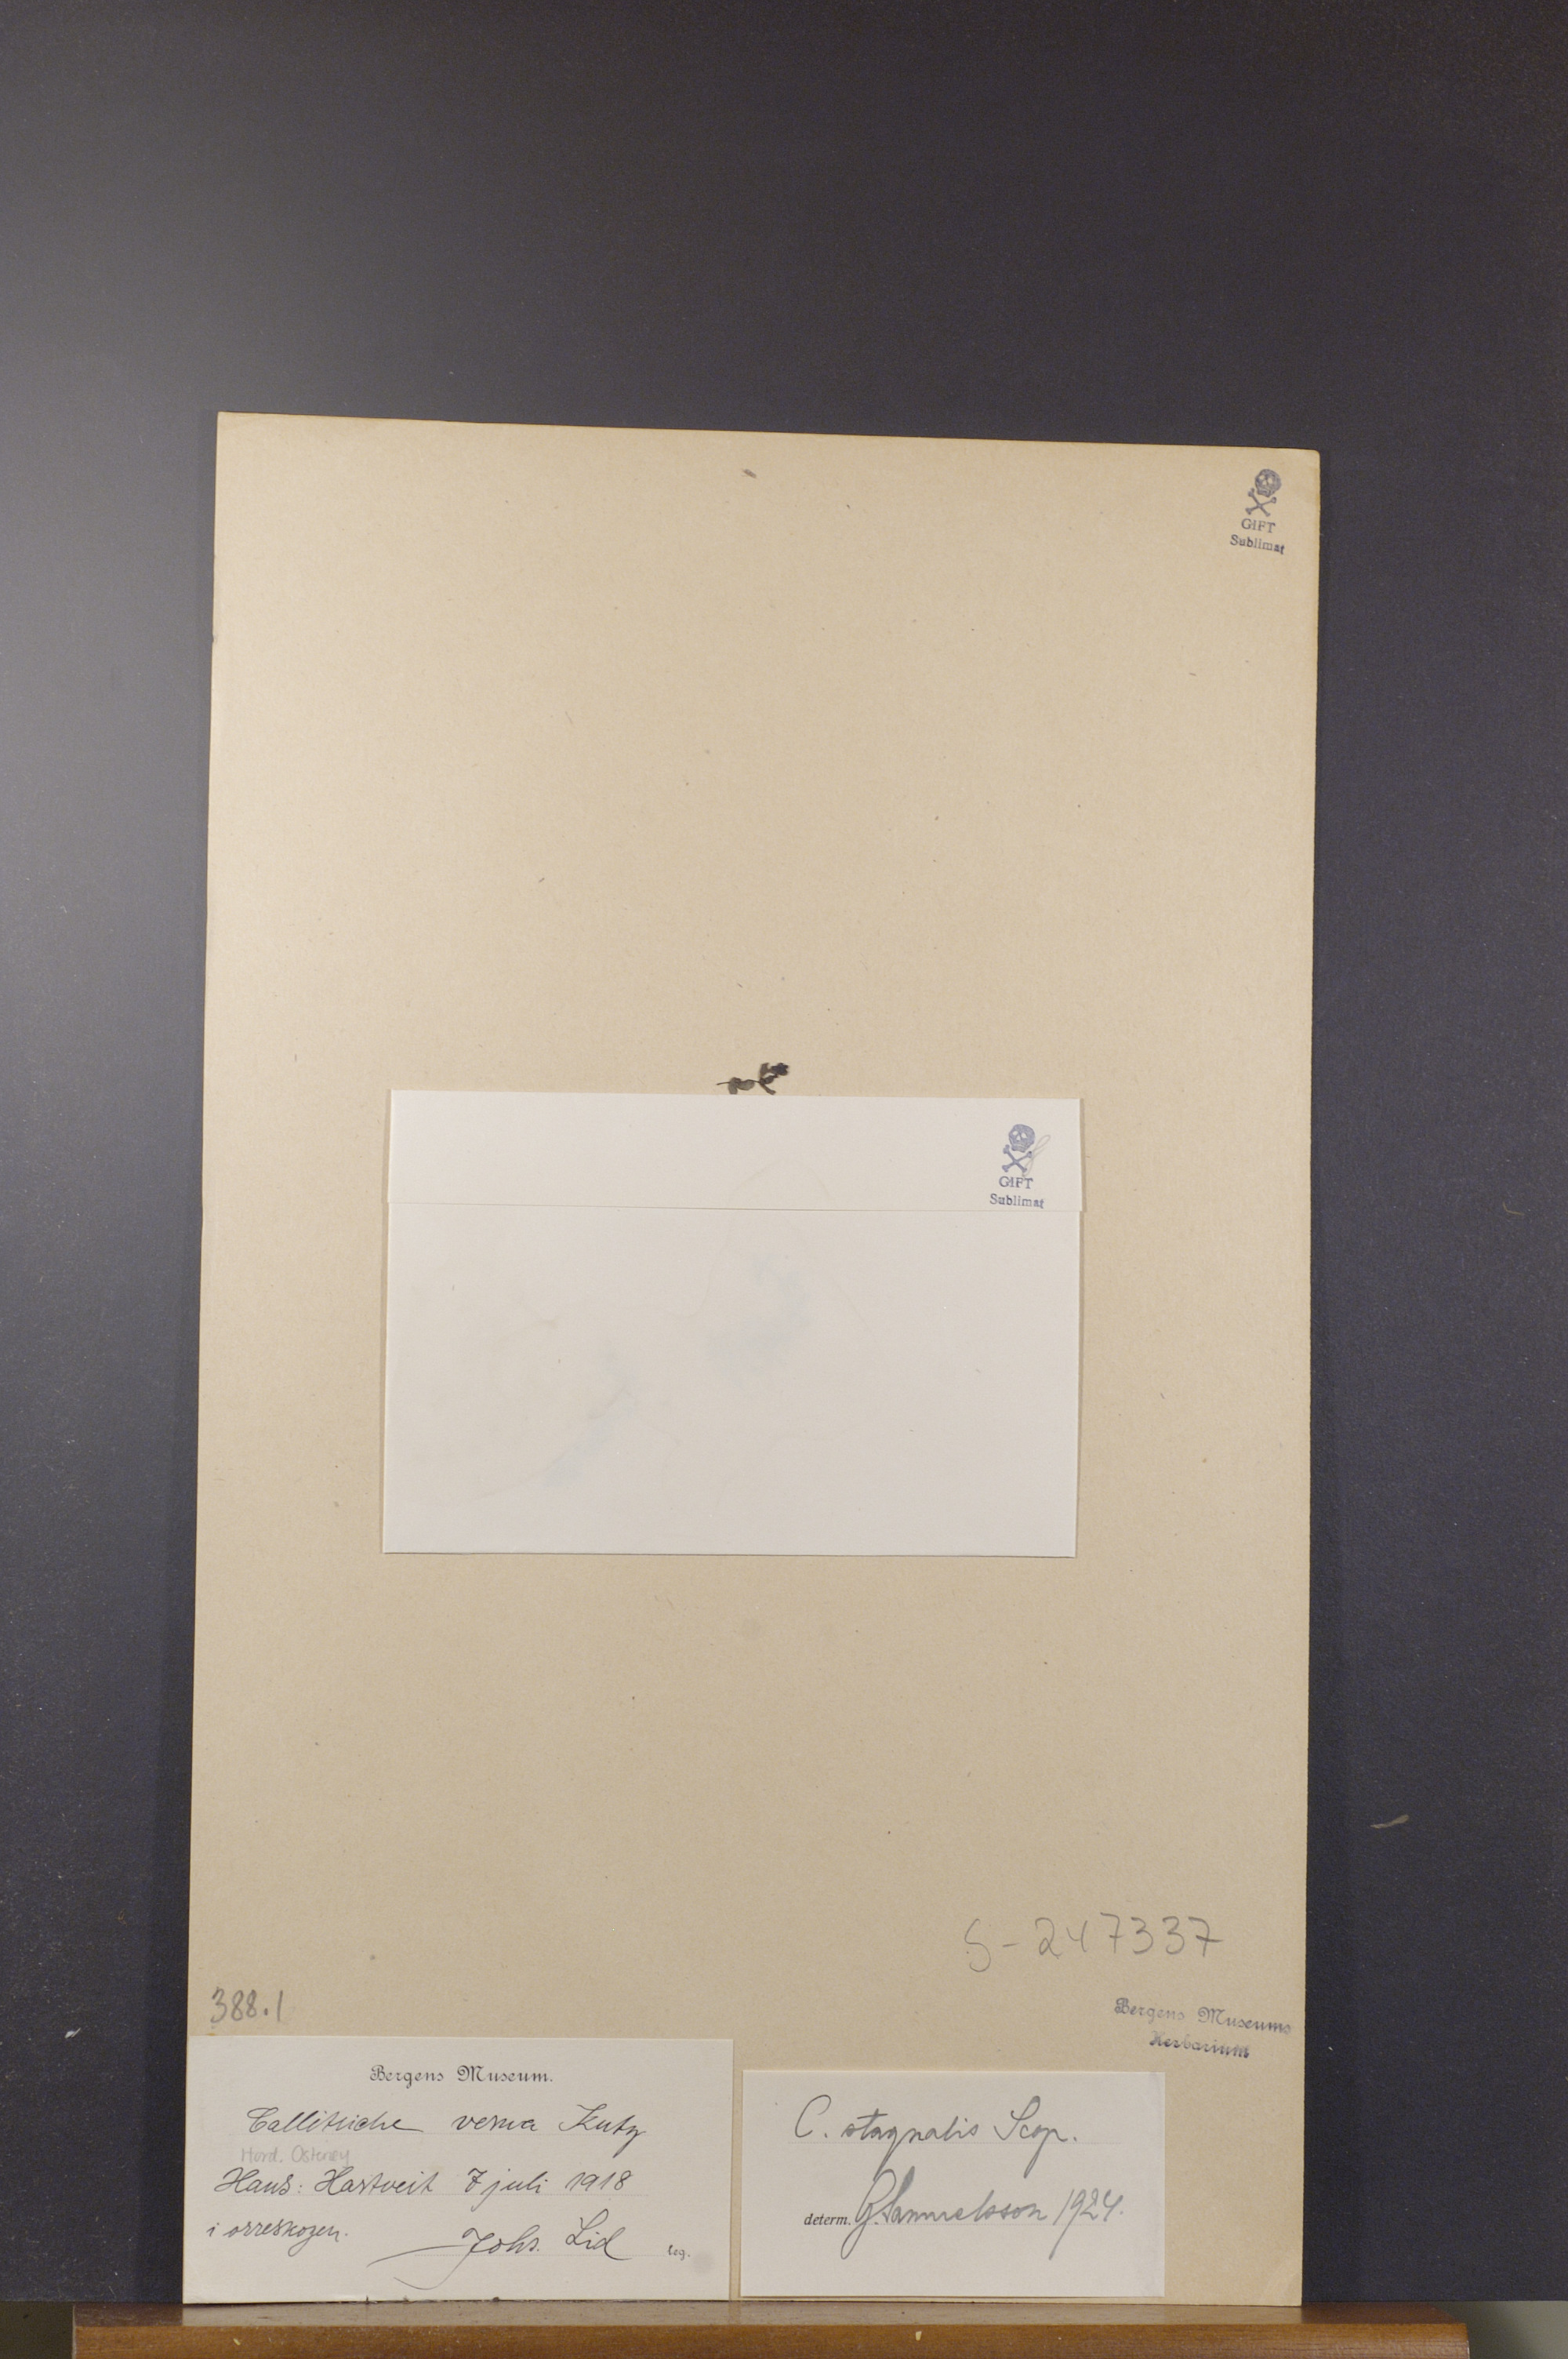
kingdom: Plantae
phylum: Tracheophyta
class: Magnoliopsida
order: Lamiales
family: Plantaginaceae
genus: Callitriche
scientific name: Callitriche stagnalis
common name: Common water-starwort
